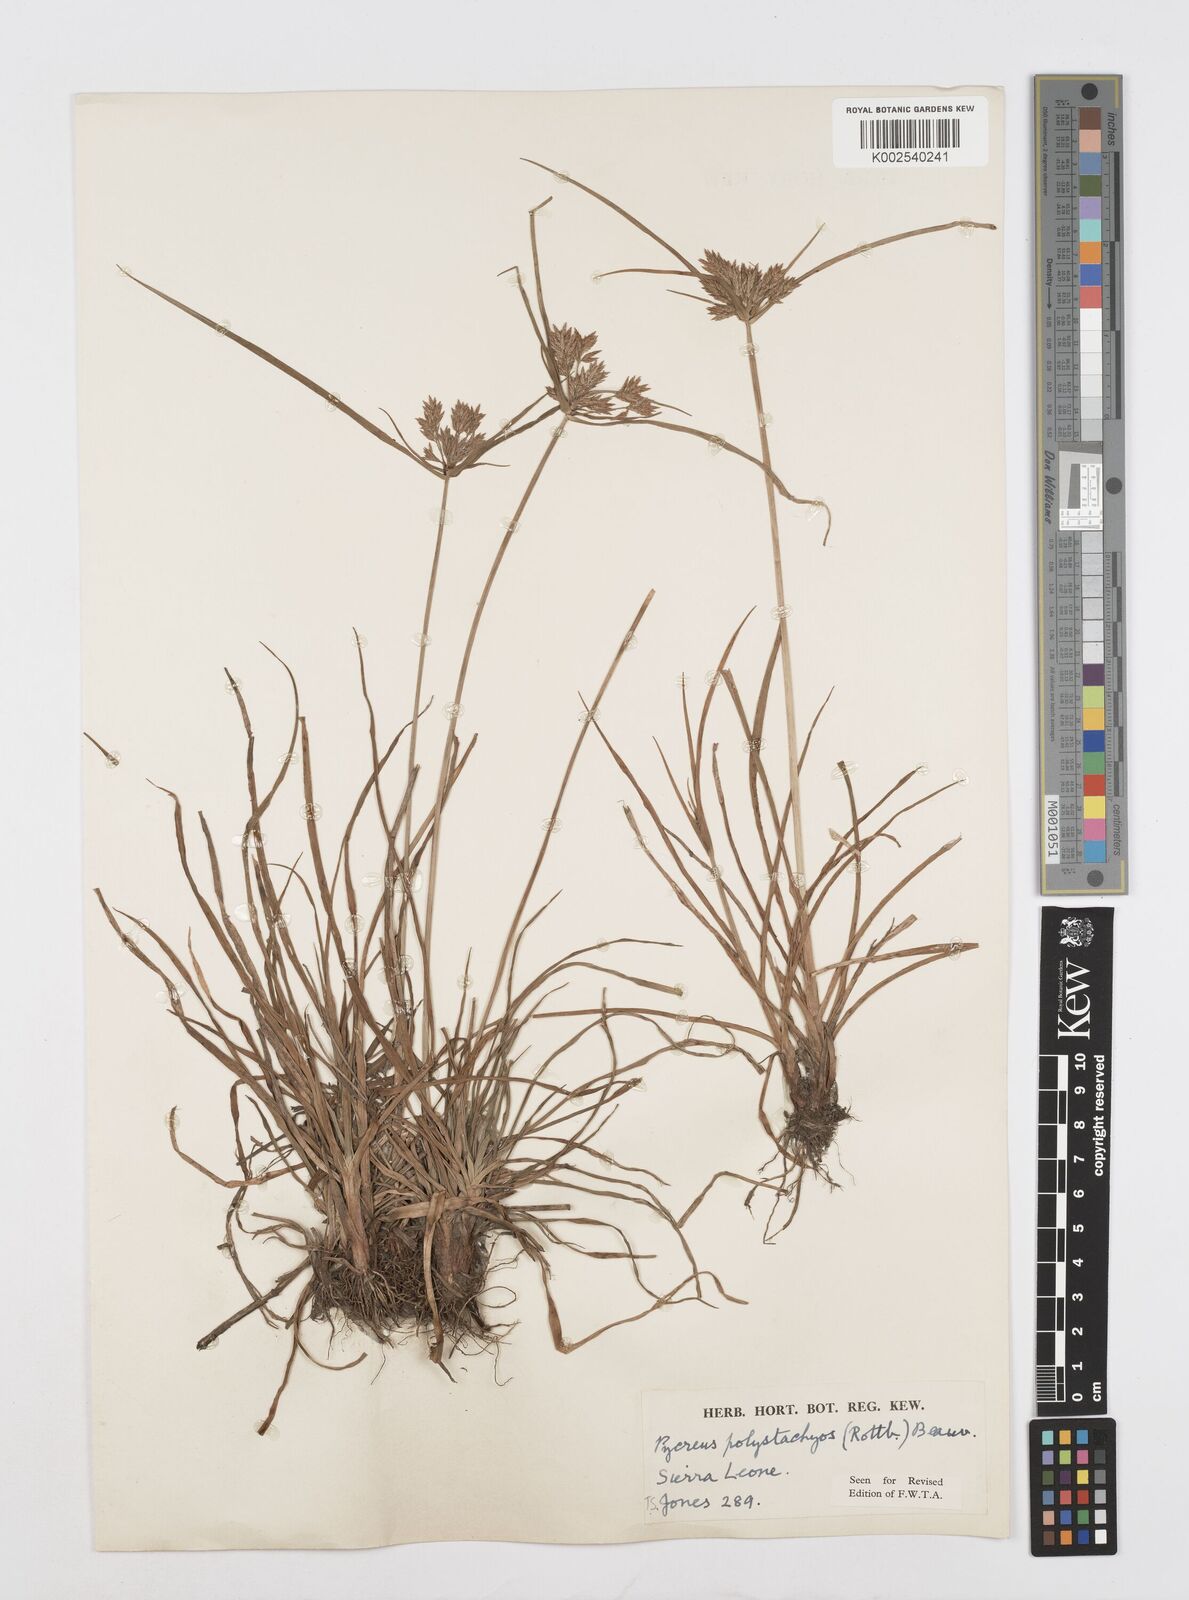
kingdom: Plantae
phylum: Tracheophyta
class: Liliopsida
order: Poales
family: Cyperaceae
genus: Cyperus
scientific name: Cyperus polystachyos
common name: Bunchy flat sedge
